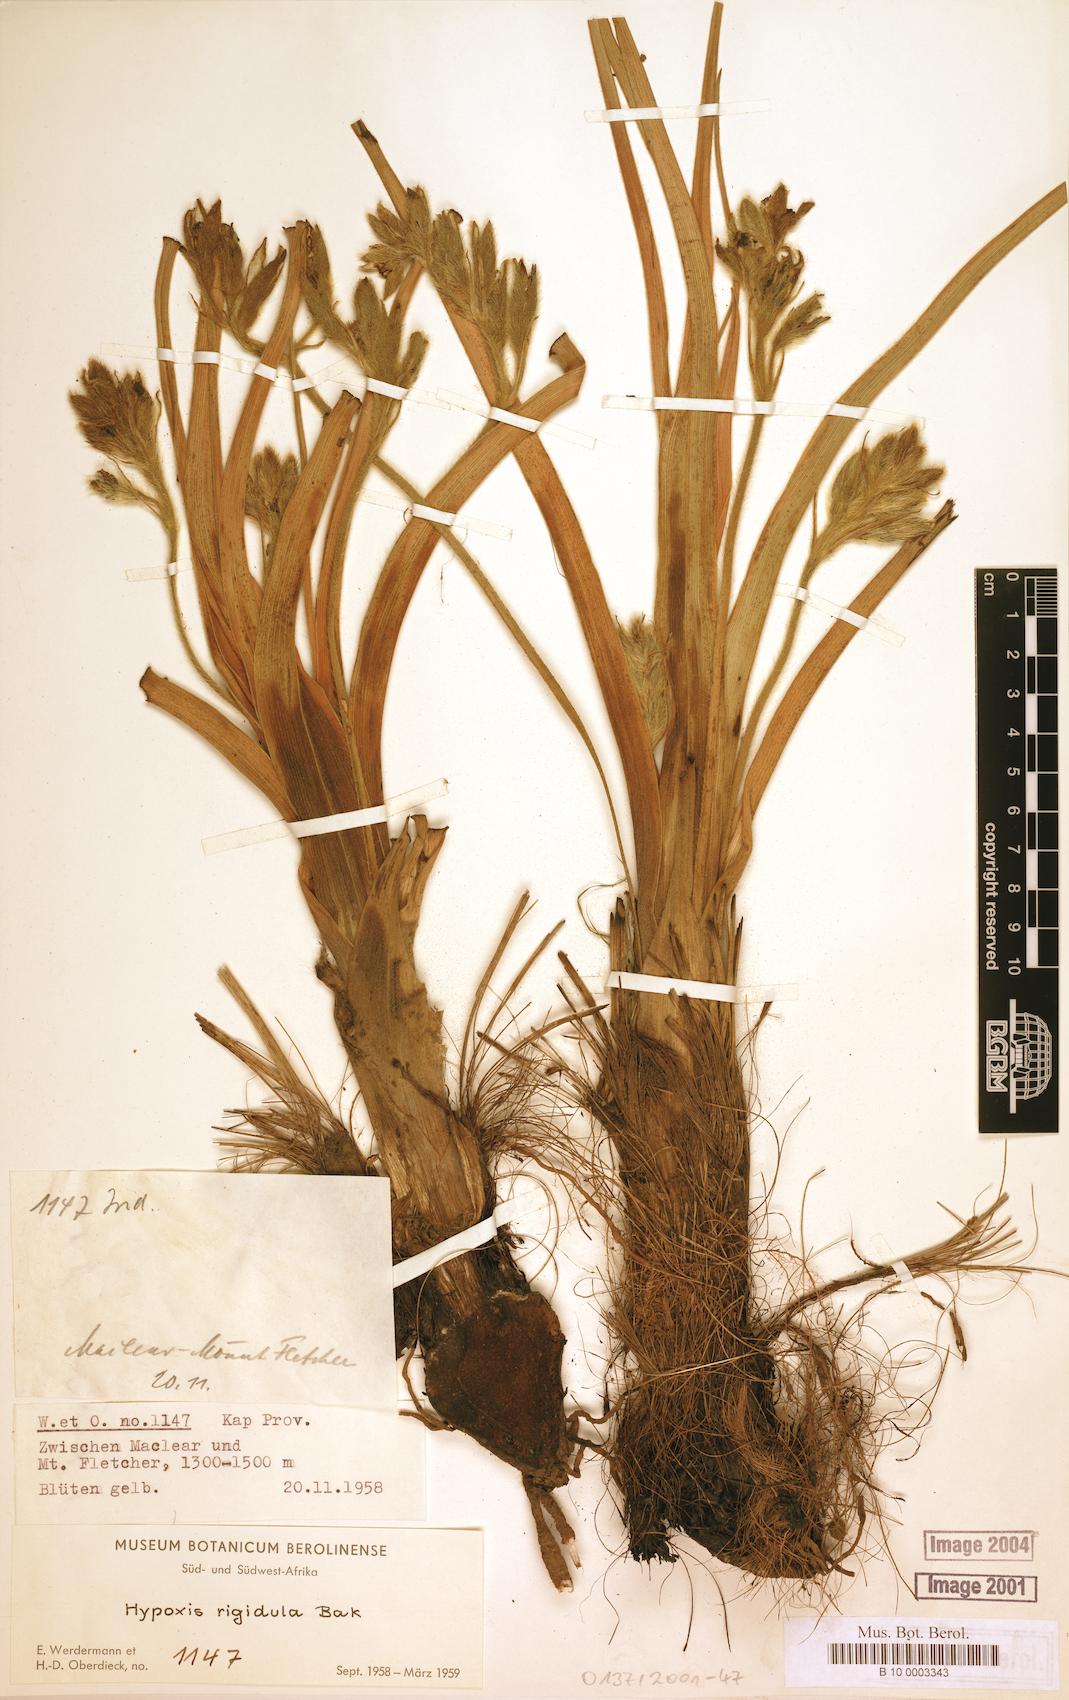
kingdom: Plantae
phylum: Tracheophyta
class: Liliopsida
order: Asparagales
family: Hypoxidaceae
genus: Hypoxis
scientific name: Hypoxis rigidula
